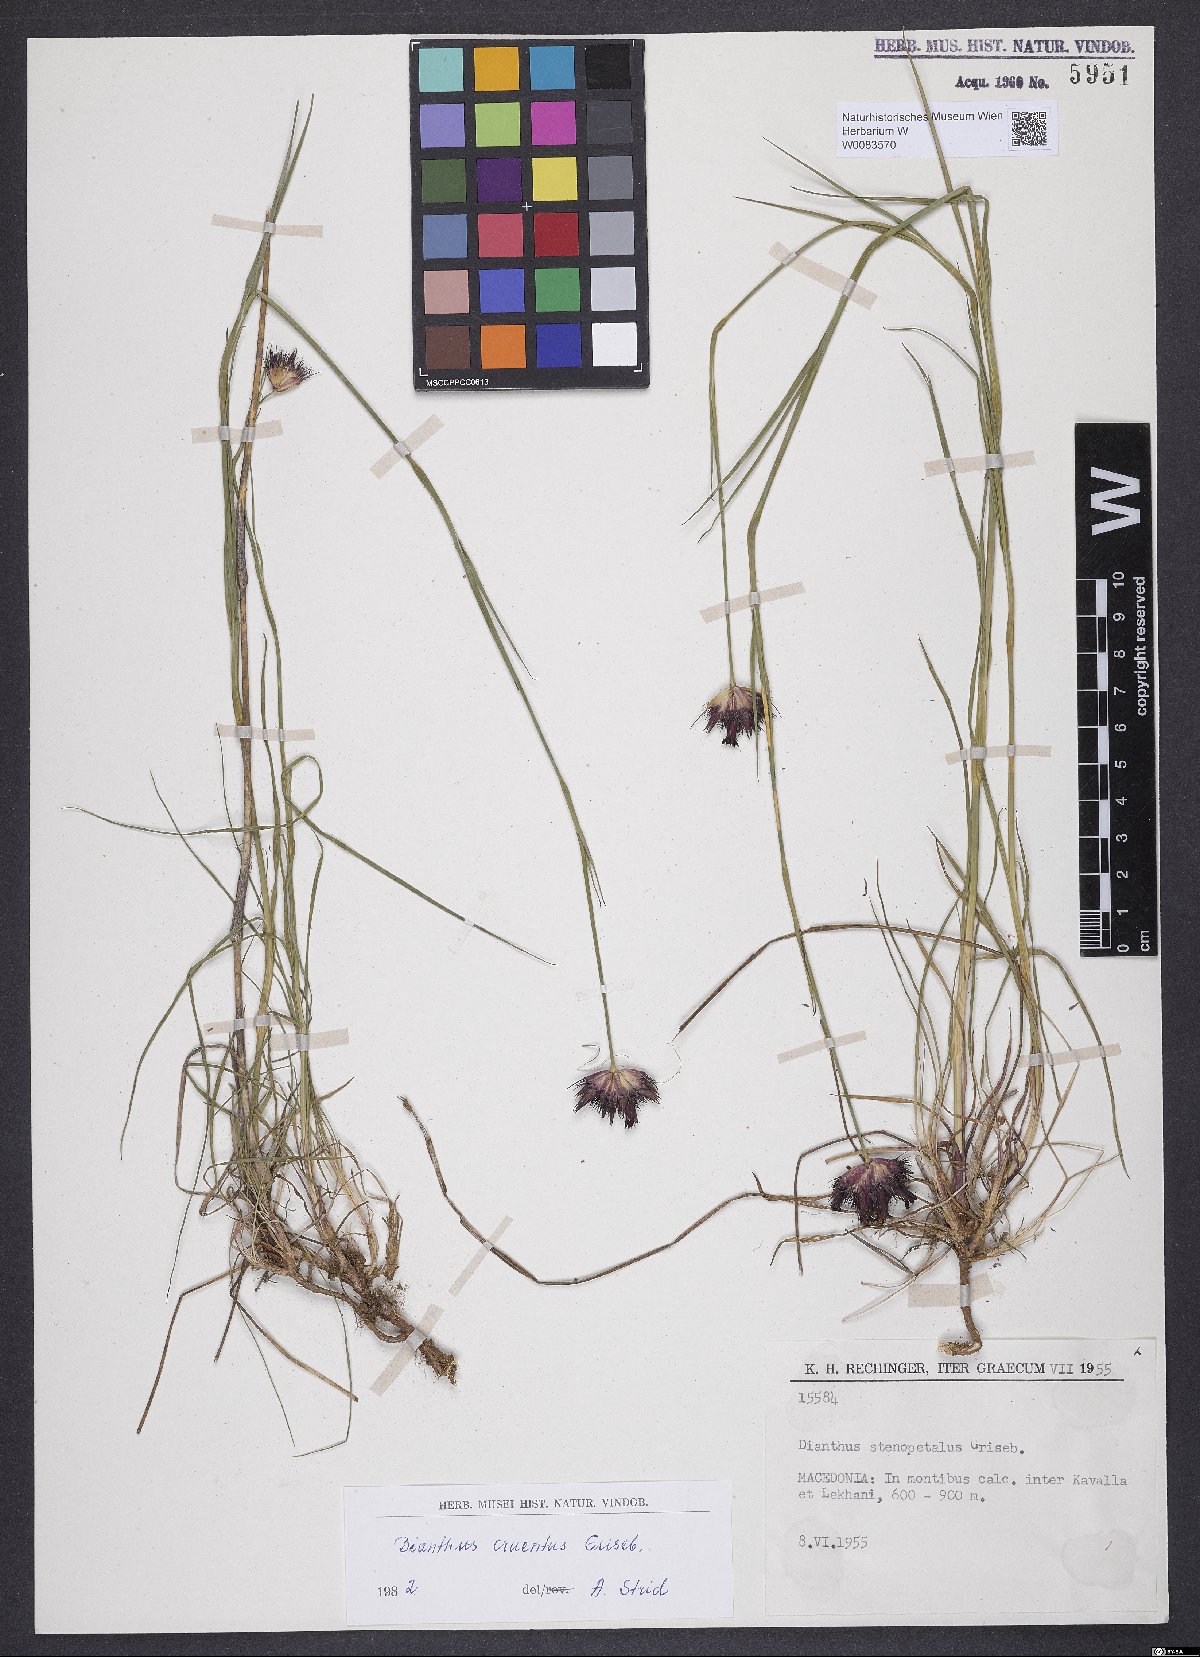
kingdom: Plantae
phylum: Tracheophyta
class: Magnoliopsida
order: Caryophyllales
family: Caryophyllaceae
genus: Dianthus
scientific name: Dianthus cruentus
